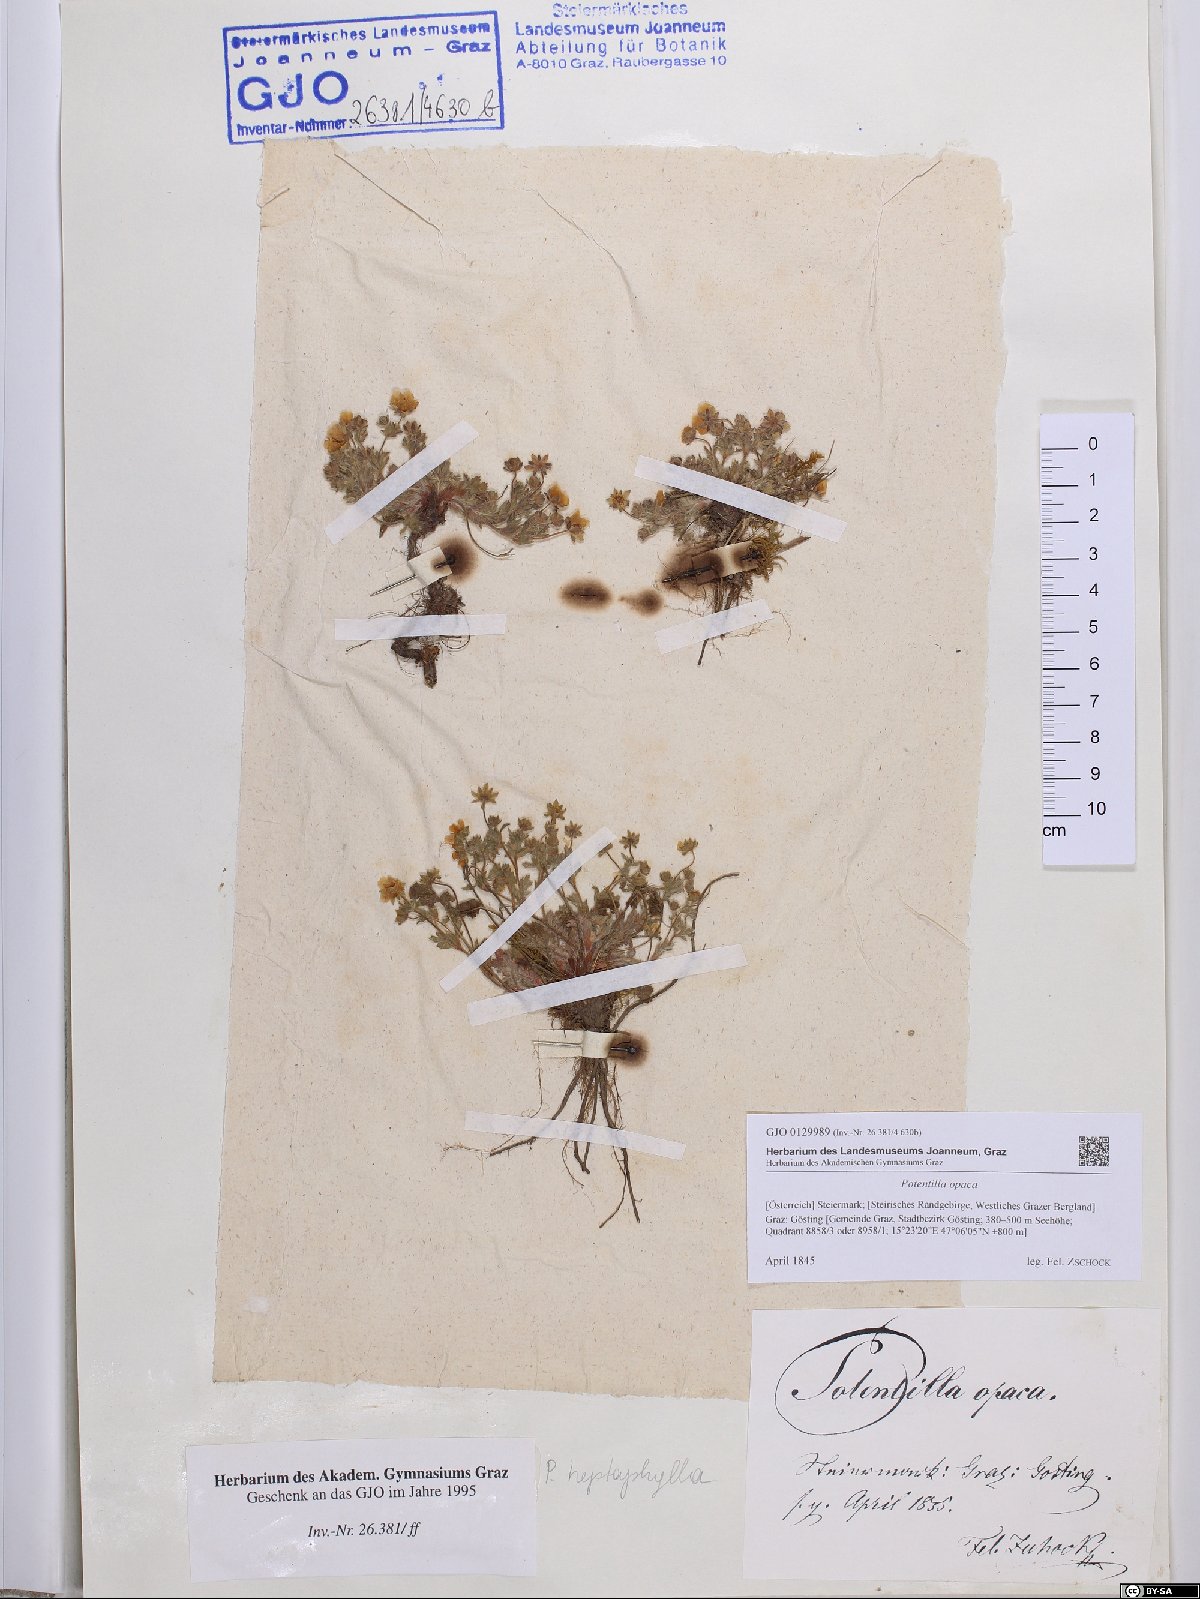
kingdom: Plantae
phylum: Tracheophyta
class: Magnoliopsida
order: Rosales
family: Rosaceae
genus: Potentilla
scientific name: Potentilla
